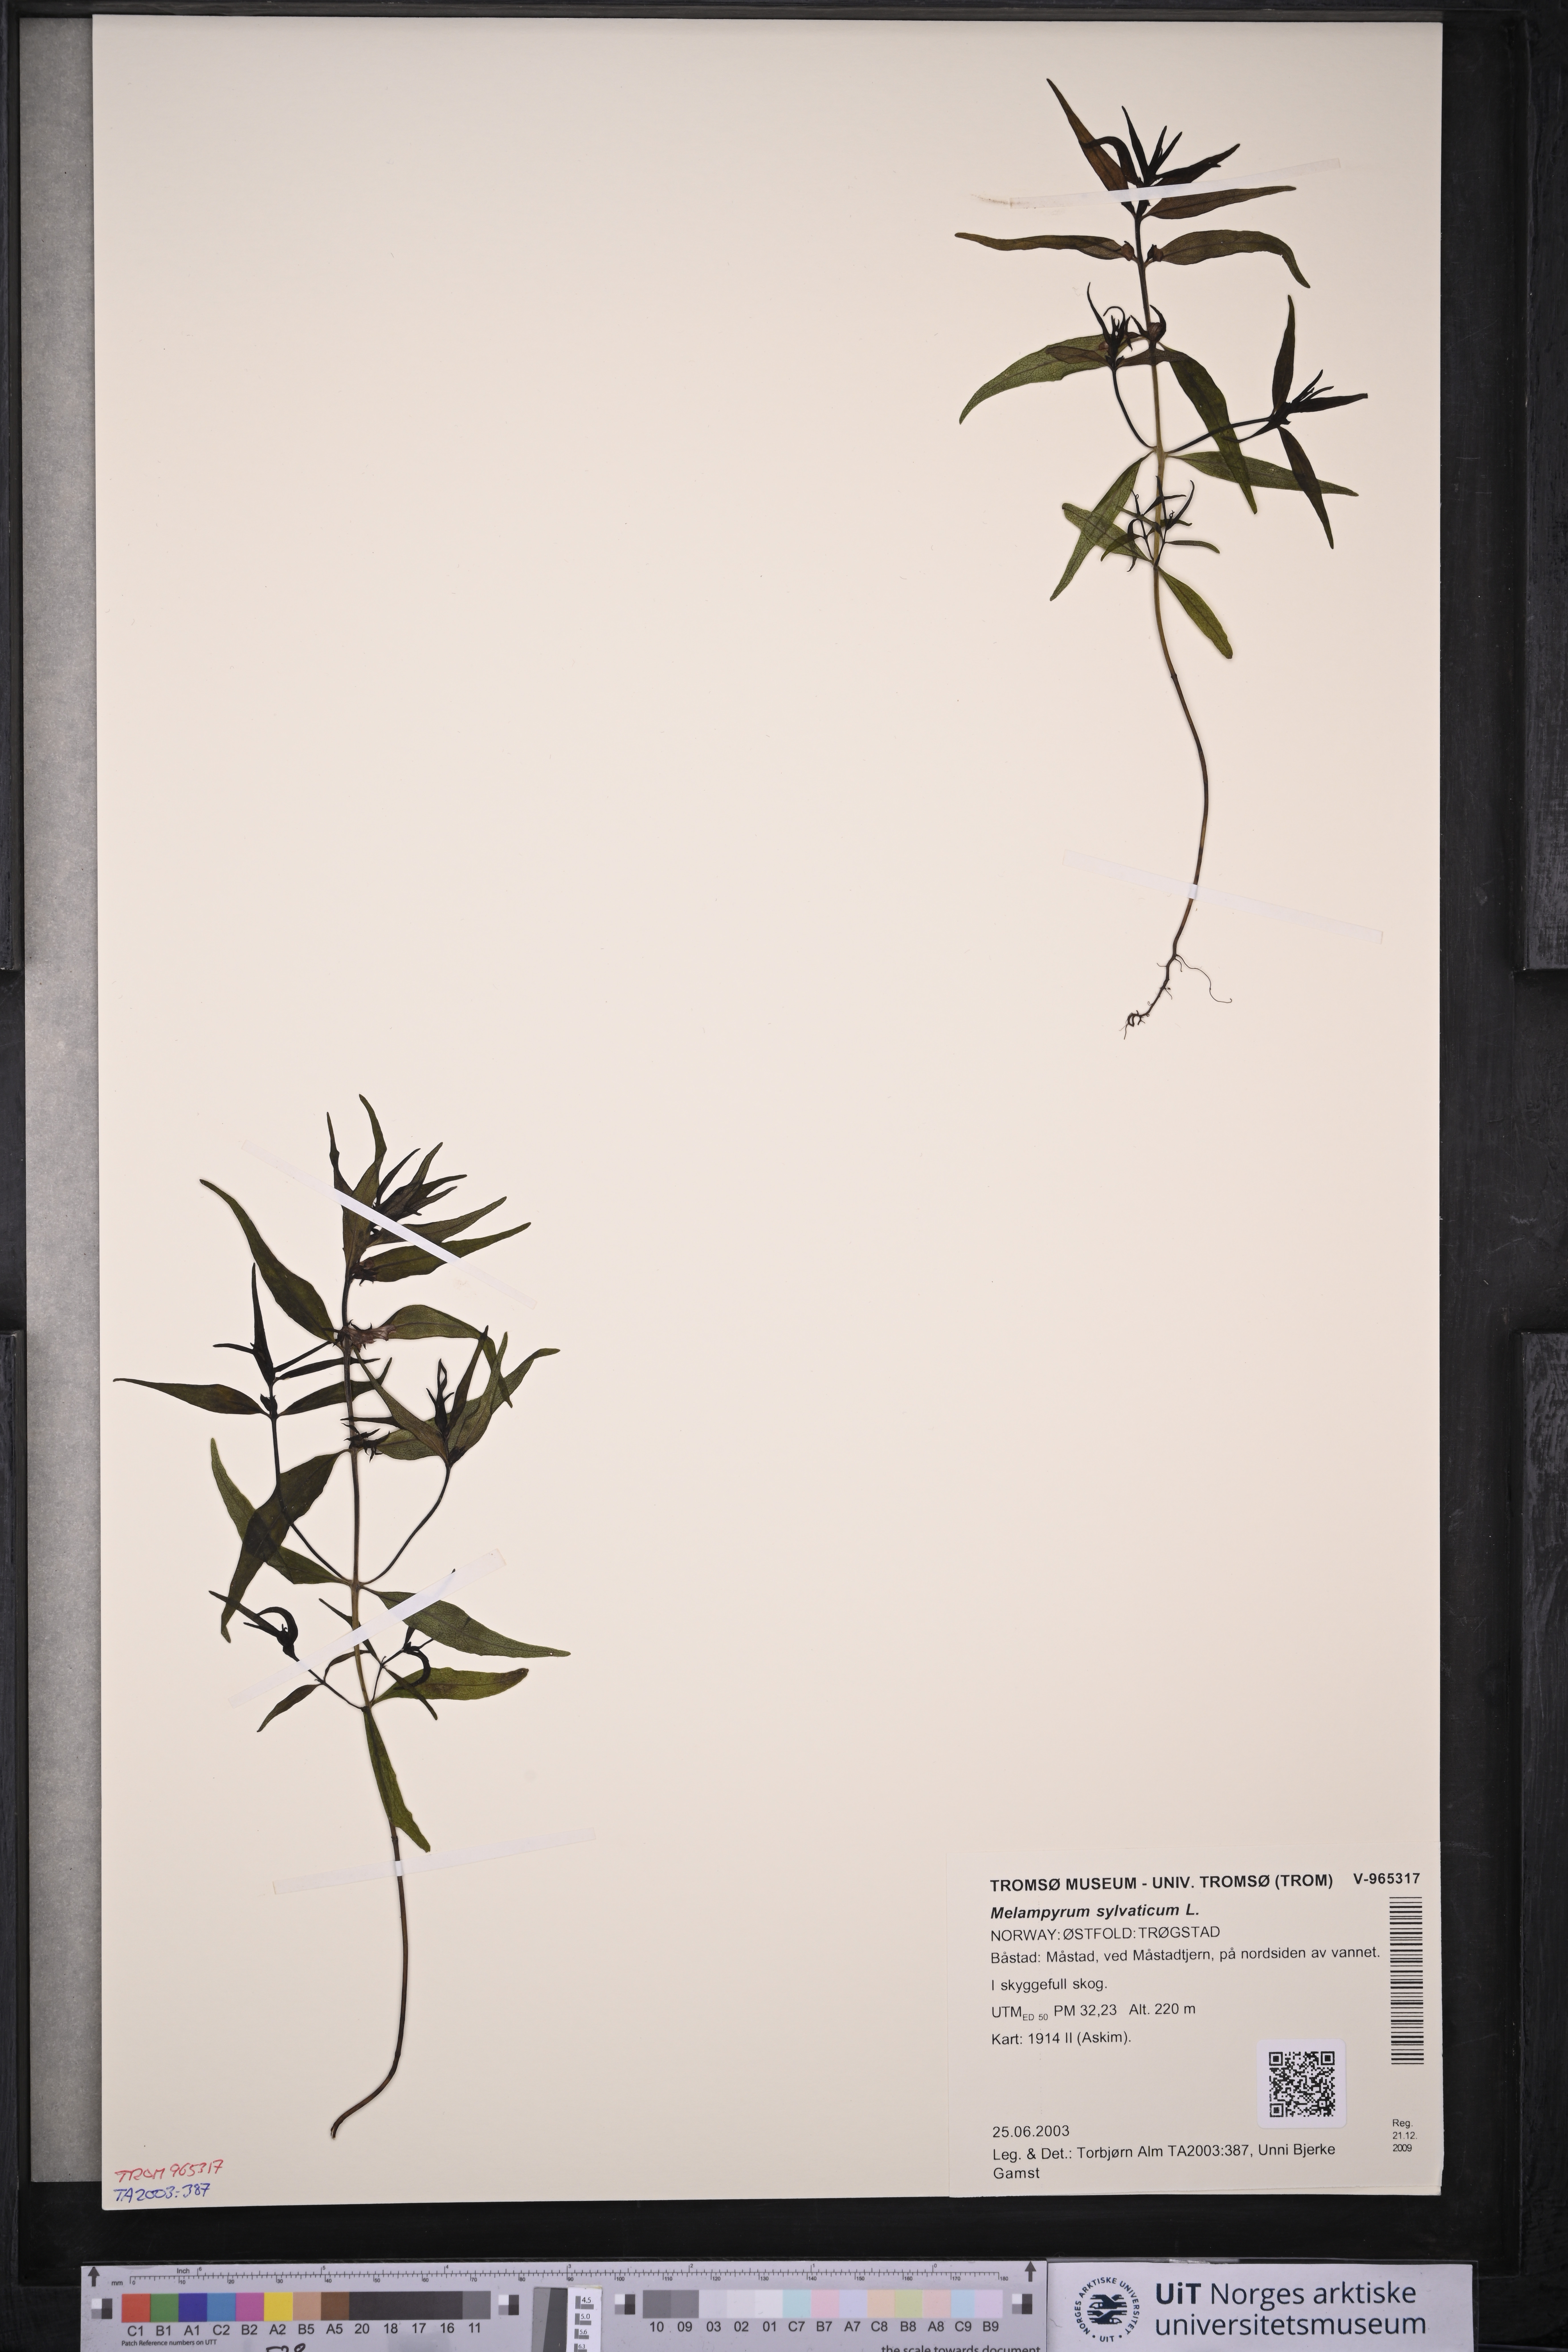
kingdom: Plantae
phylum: Tracheophyta
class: Magnoliopsida
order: Lamiales
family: Orobanchaceae
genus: Melampyrum
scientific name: Melampyrum sylvaticum
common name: Small cow-wheat
